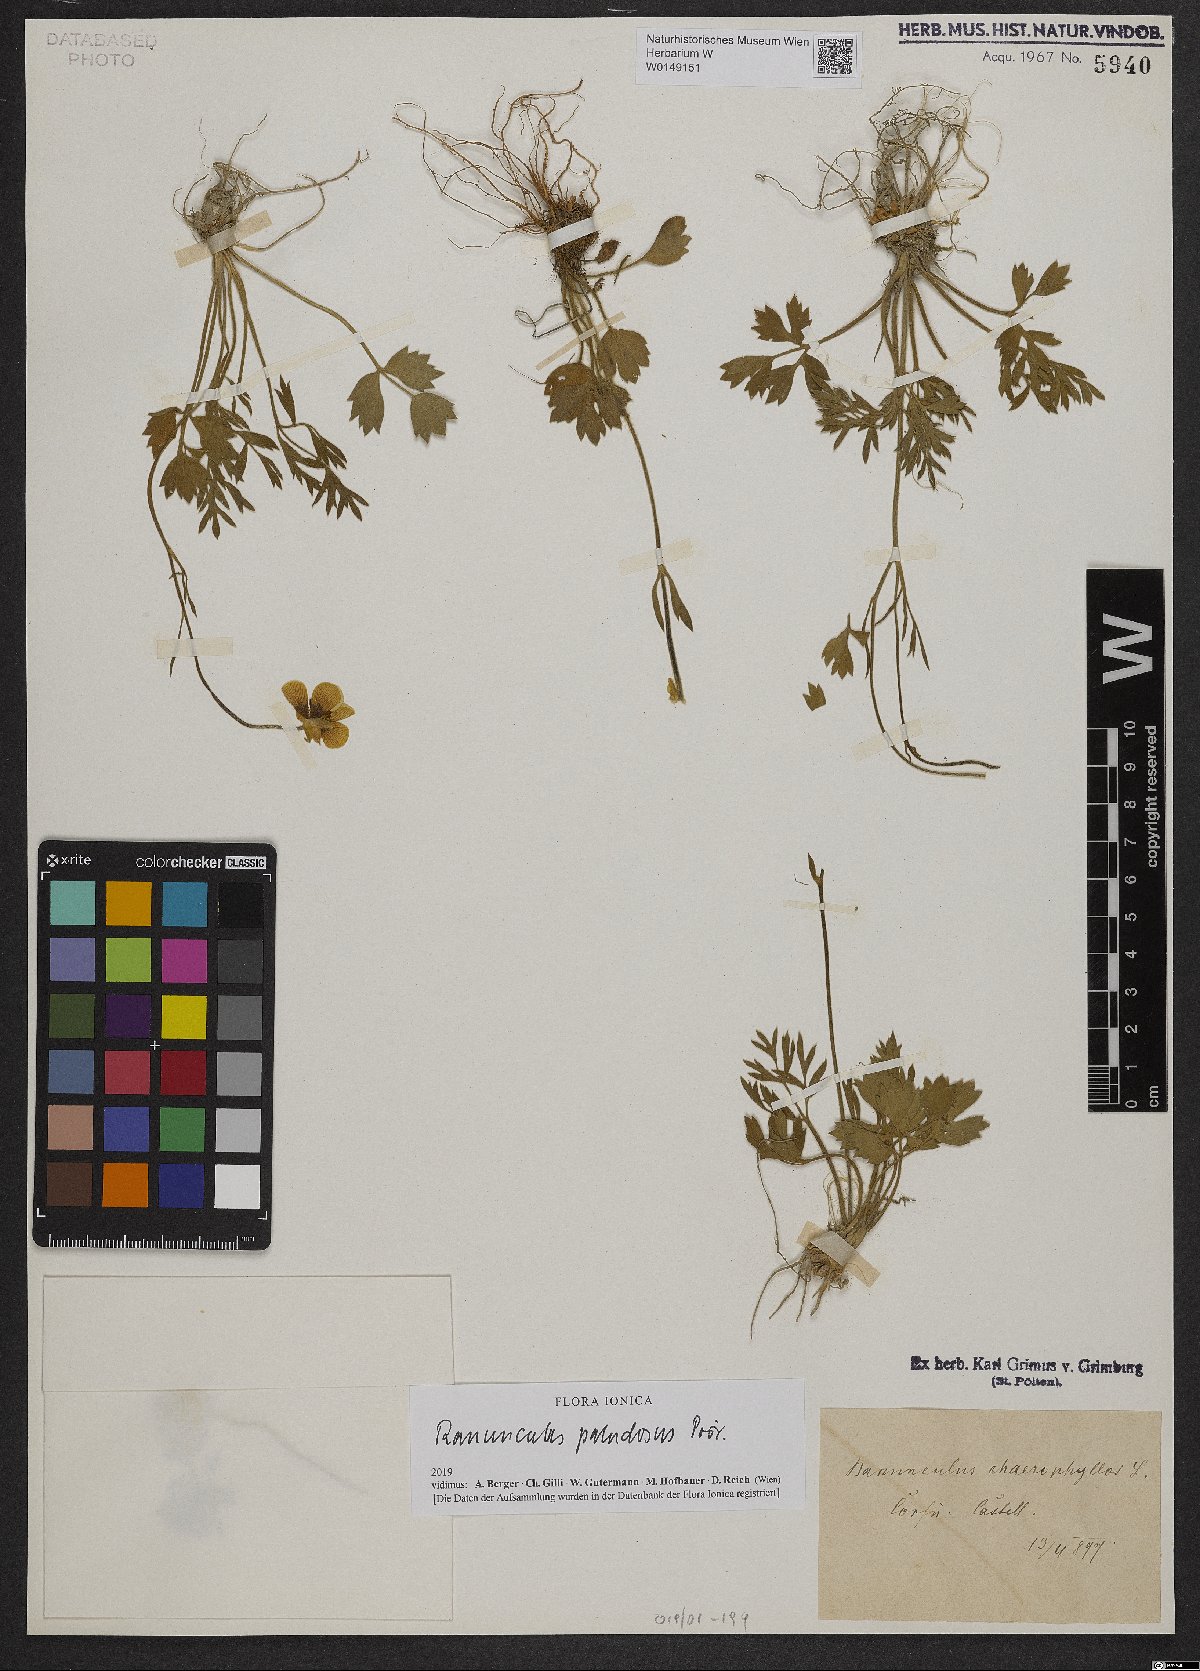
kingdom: Plantae
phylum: Tracheophyta
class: Magnoliopsida
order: Ranunculales
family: Ranunculaceae
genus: Ranunculus
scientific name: Ranunculus paludosus
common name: Jersey buttercup
